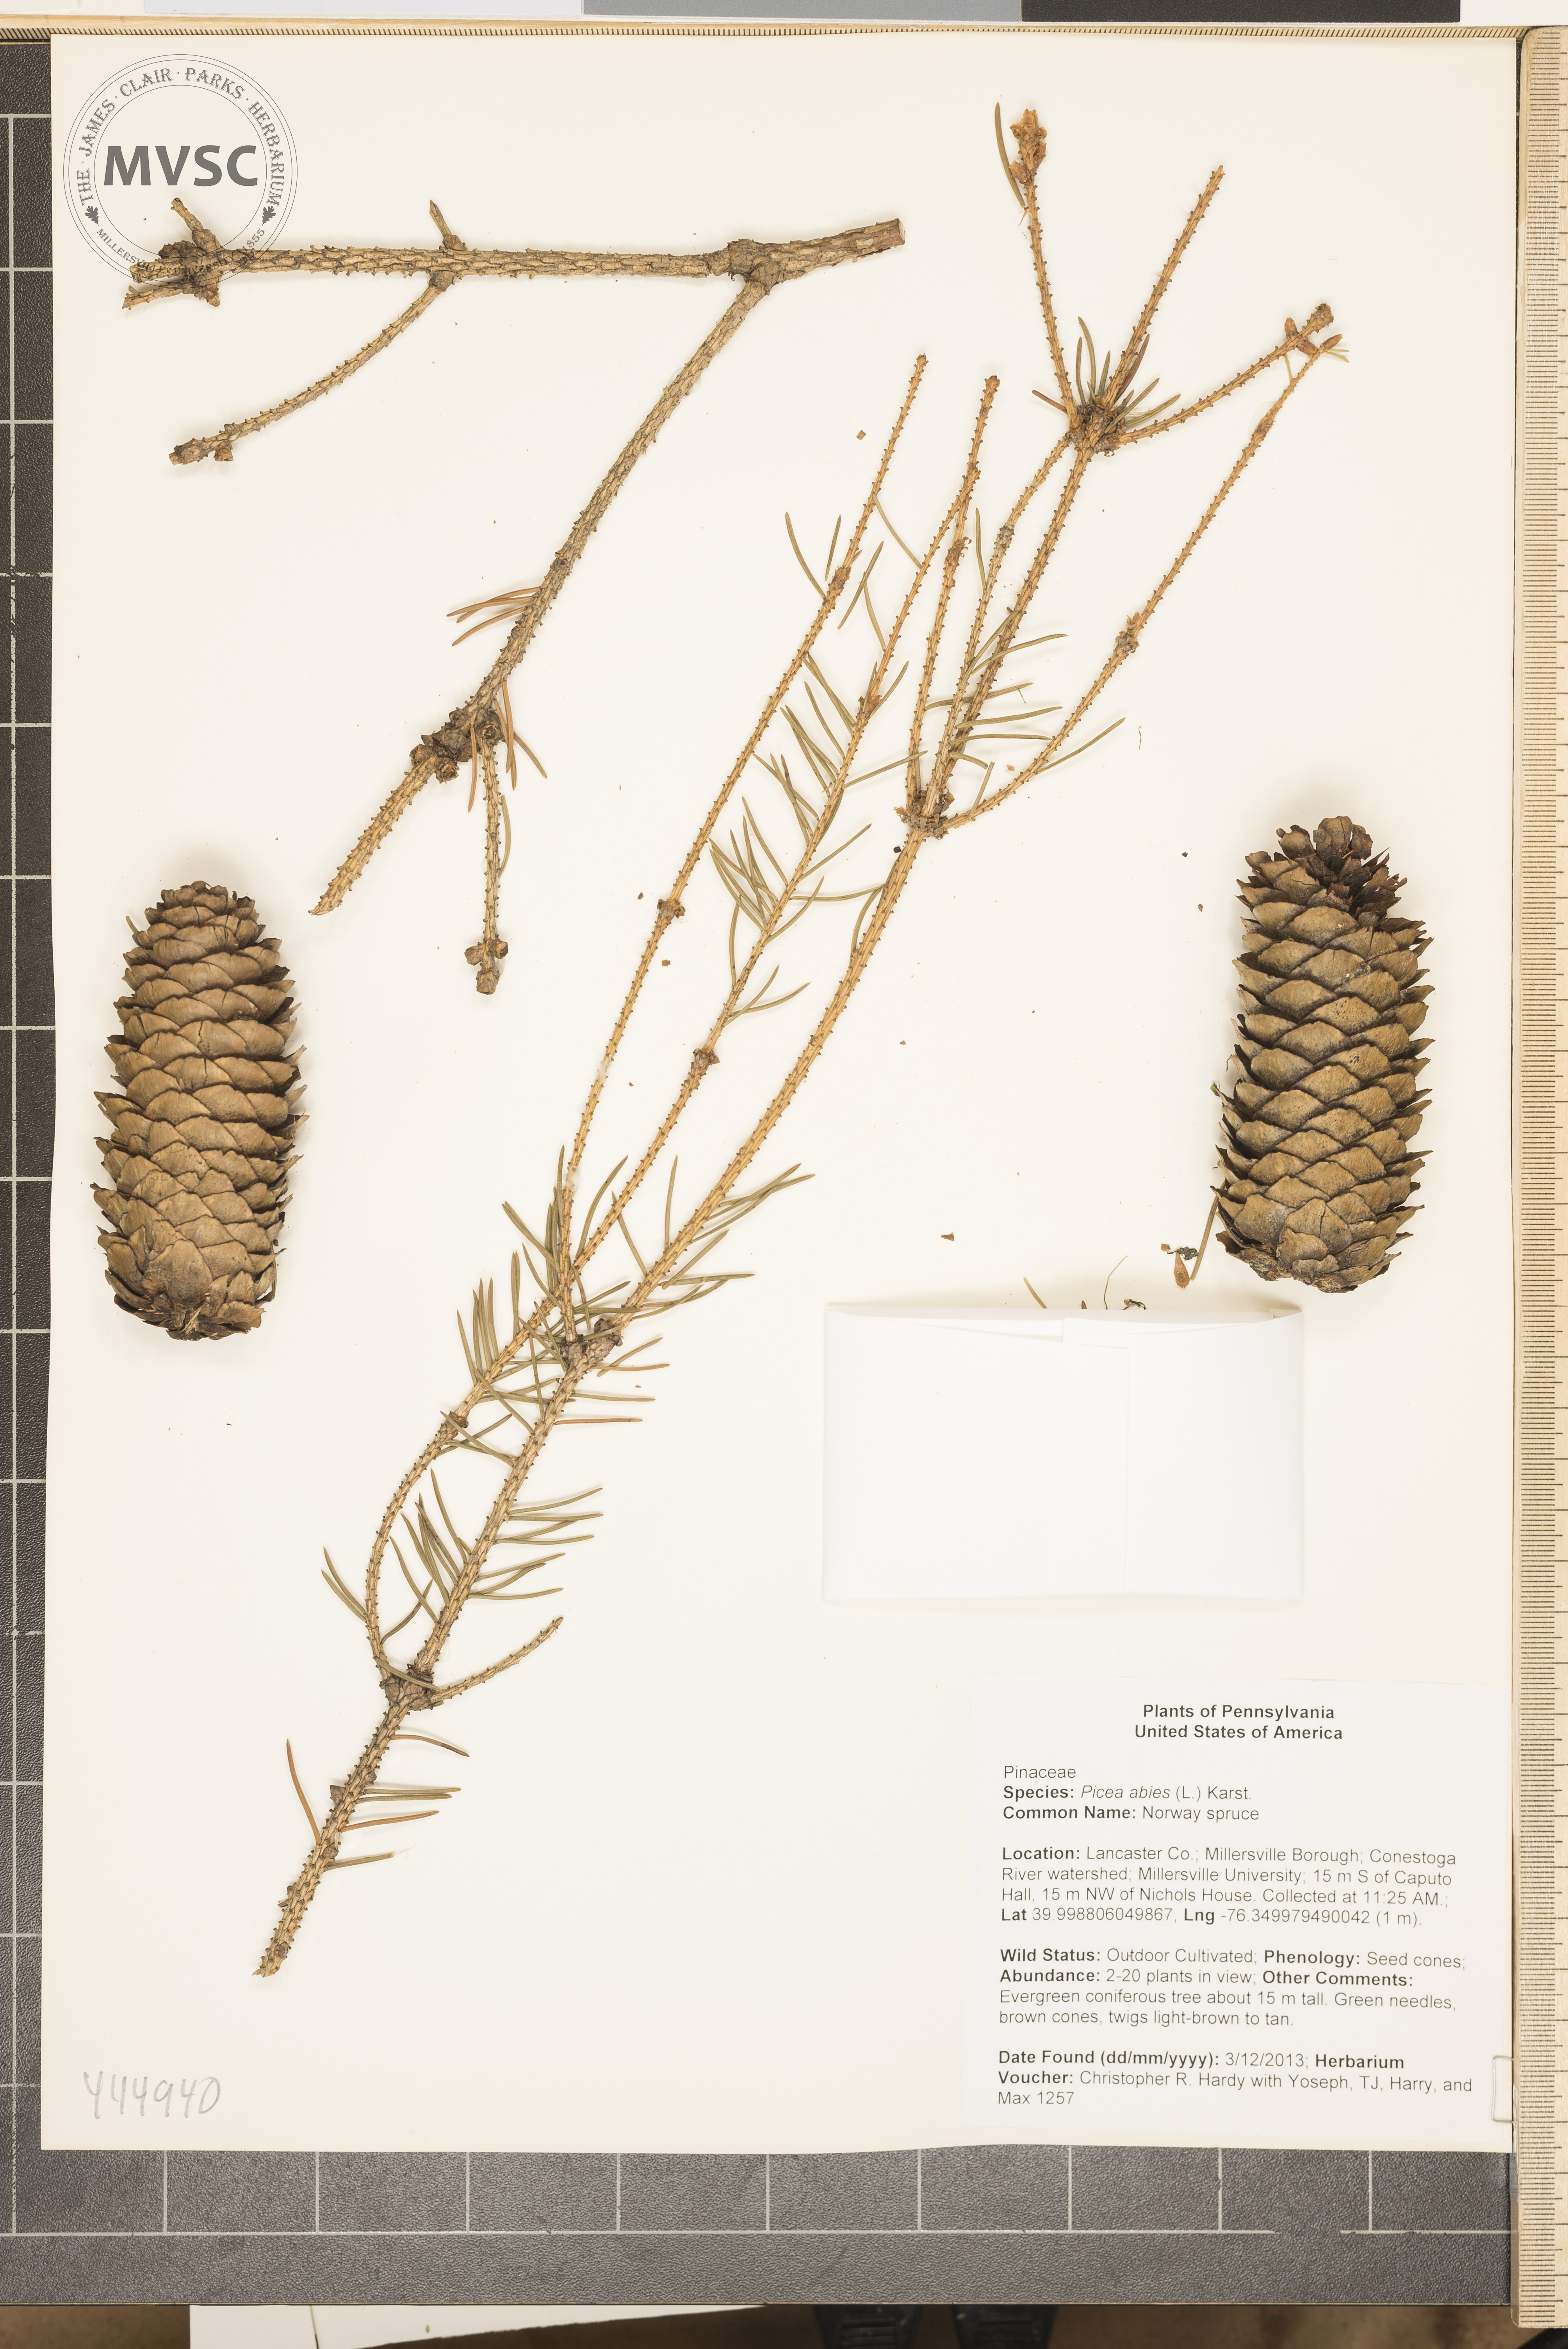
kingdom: Plantae
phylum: Tracheophyta
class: Pinopsida
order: Pinales
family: Pinaceae
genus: Picea
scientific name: Picea abies
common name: Norway spruce
